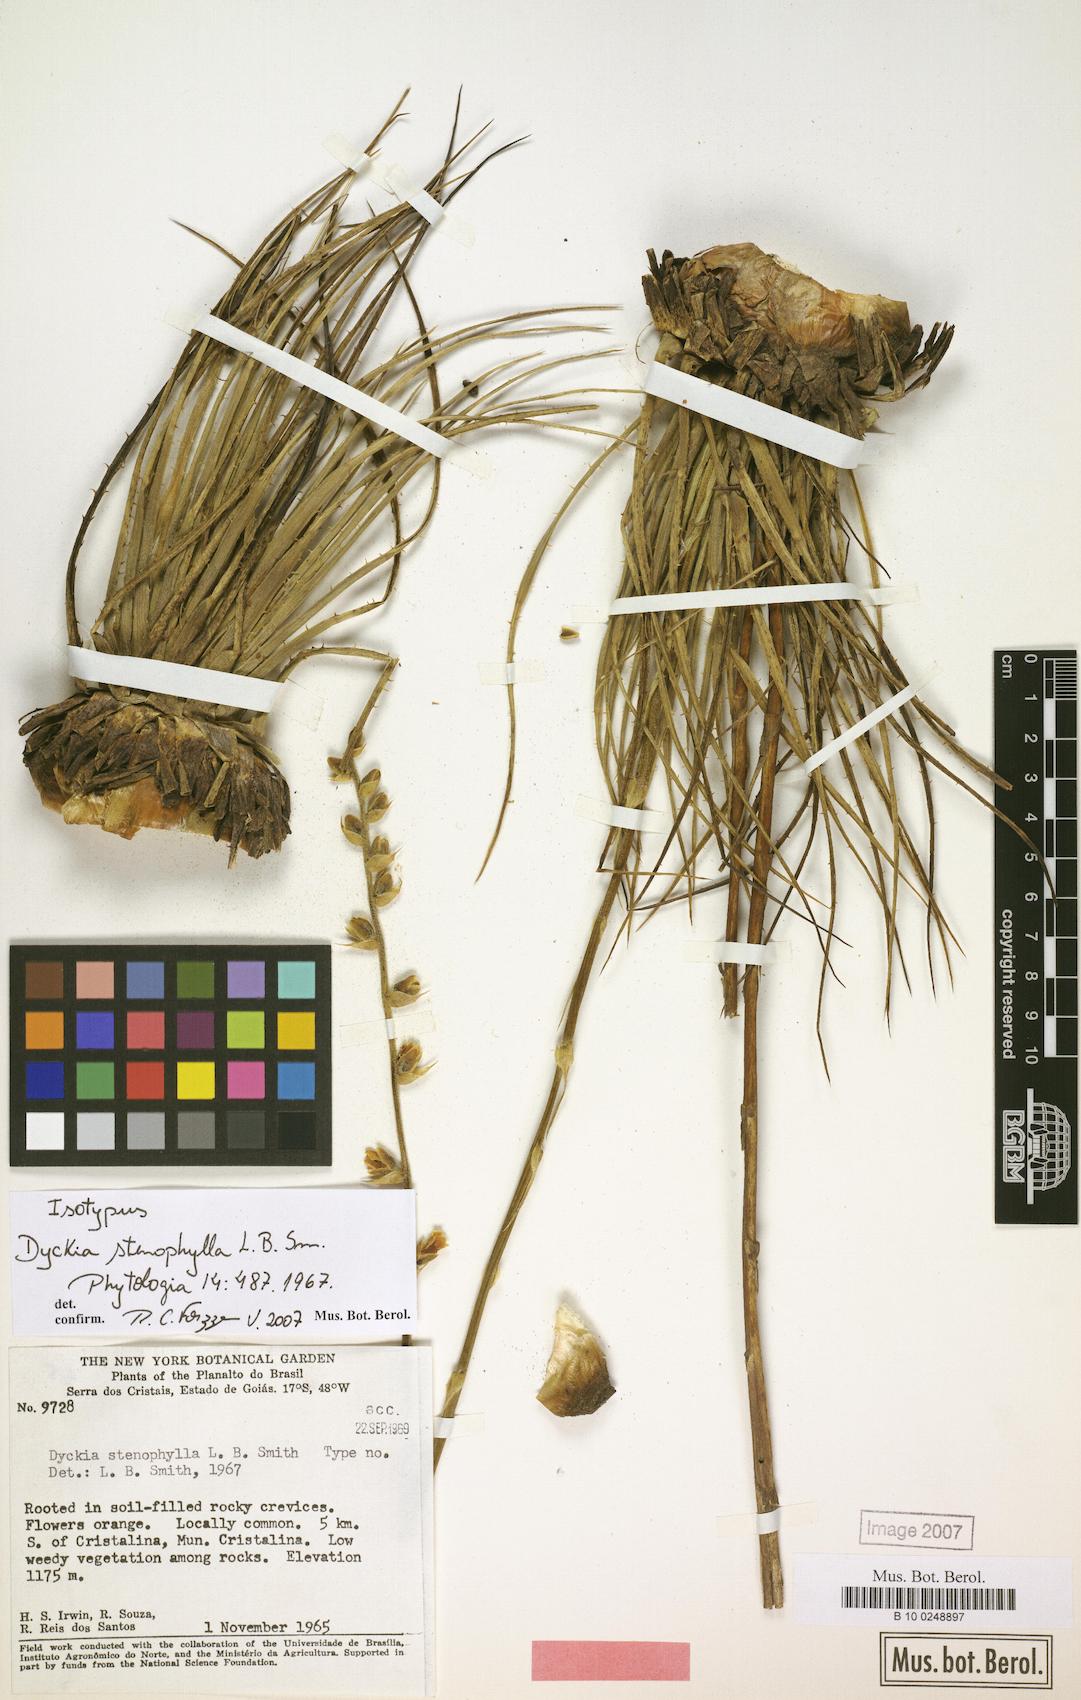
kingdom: Plantae
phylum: Tracheophyta
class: Liliopsida
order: Poales
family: Bromeliaceae
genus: Dyckia
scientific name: Dyckia stenophylla
